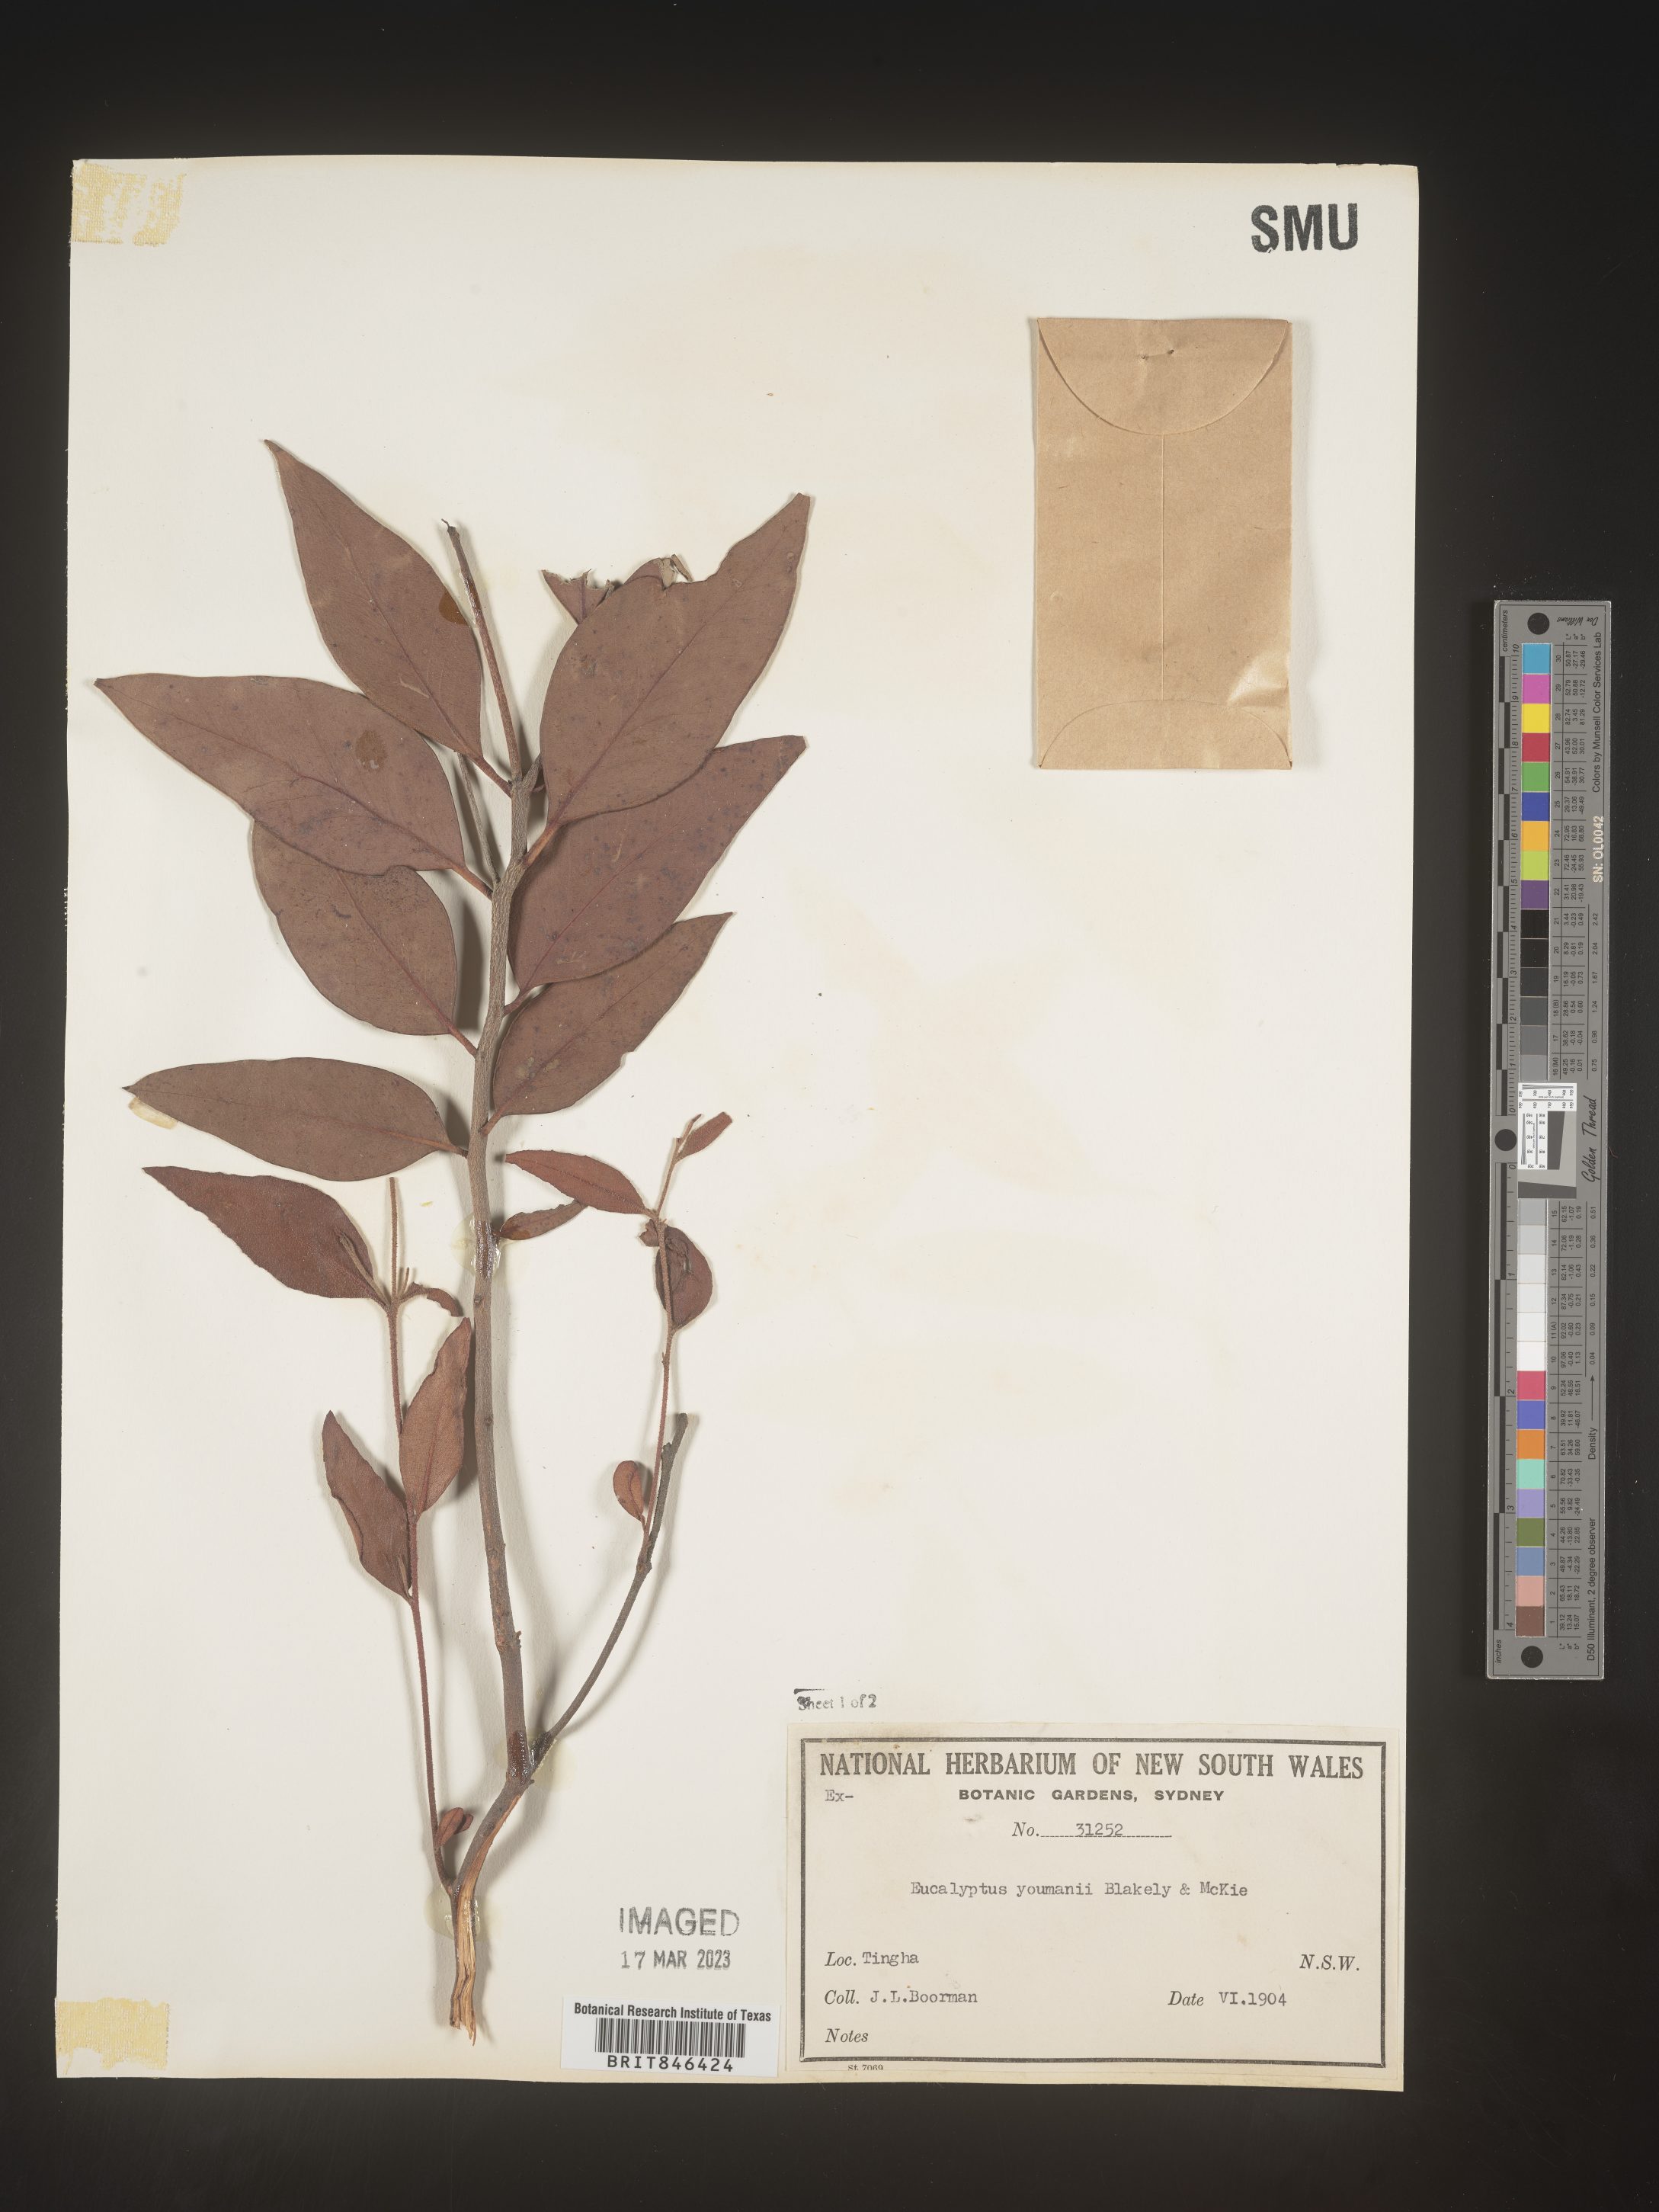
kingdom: Plantae
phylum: Tracheophyta
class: Magnoliopsida
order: Myrtales
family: Myrtaceae
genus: Eucalyptus
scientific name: Eucalyptus
